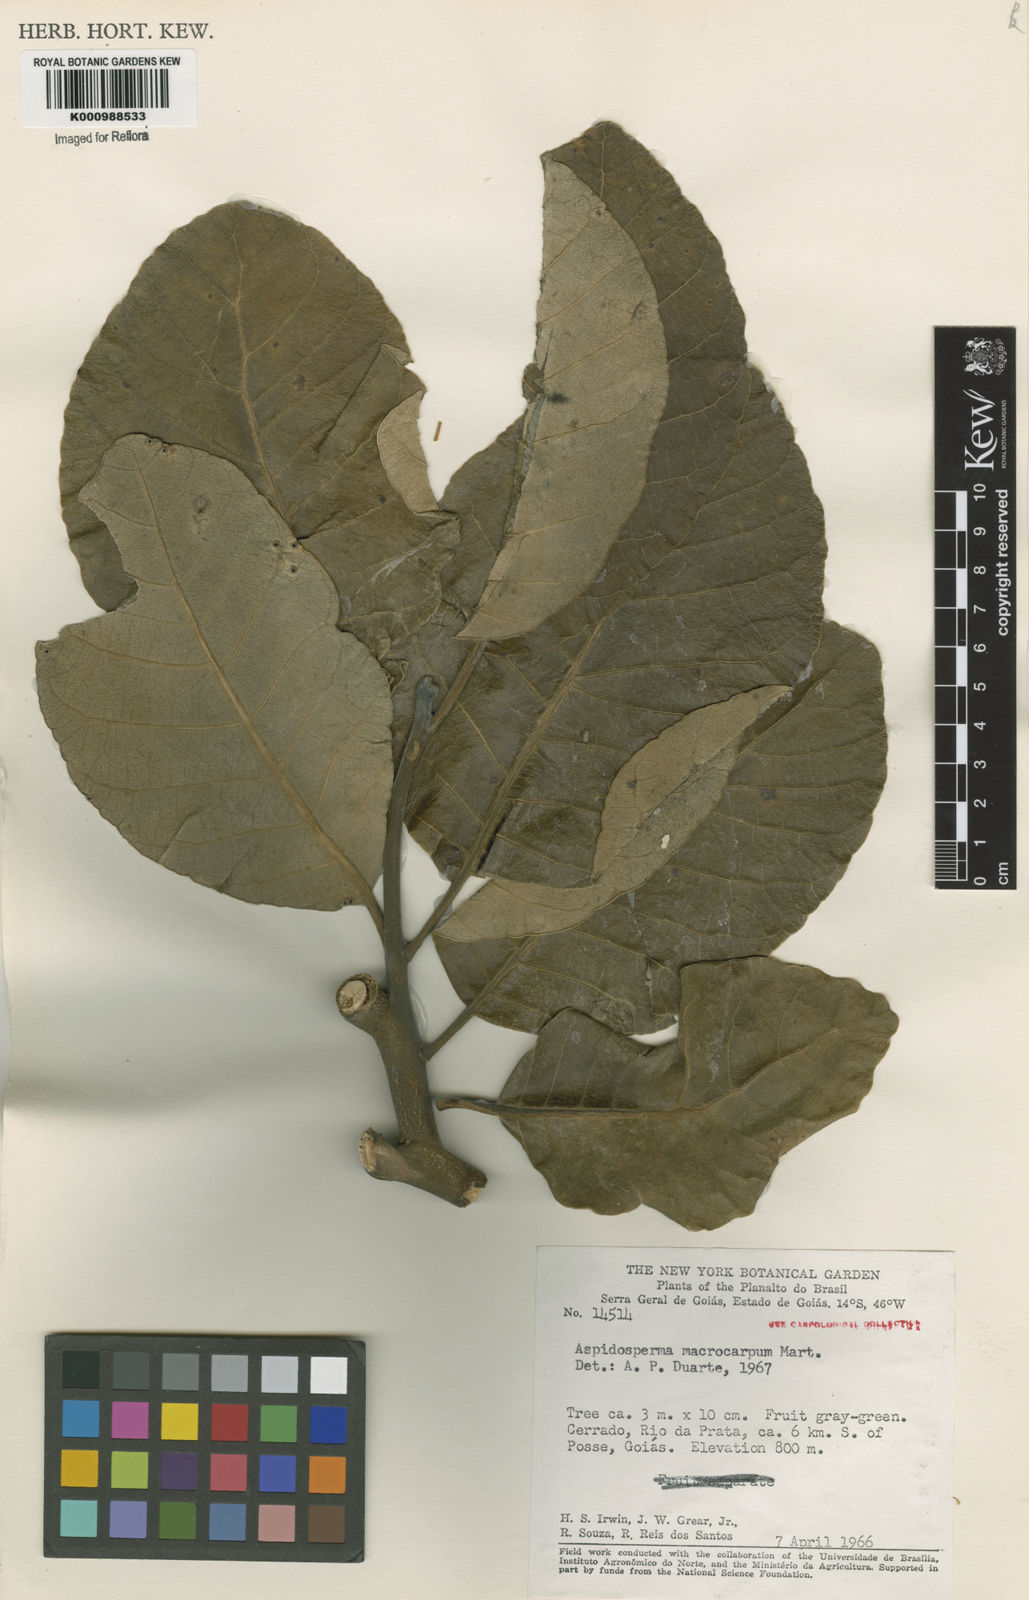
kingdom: Plantae
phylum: Tracheophyta
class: Magnoliopsida
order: Gentianales
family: Apocynaceae
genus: Aspidosperma
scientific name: Aspidosperma macrocarpon
